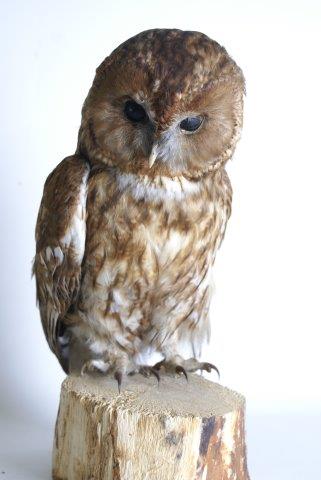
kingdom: Animalia
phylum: Chordata
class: Aves
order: Strigiformes
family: Strigidae
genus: Strix
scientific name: Strix aluco
